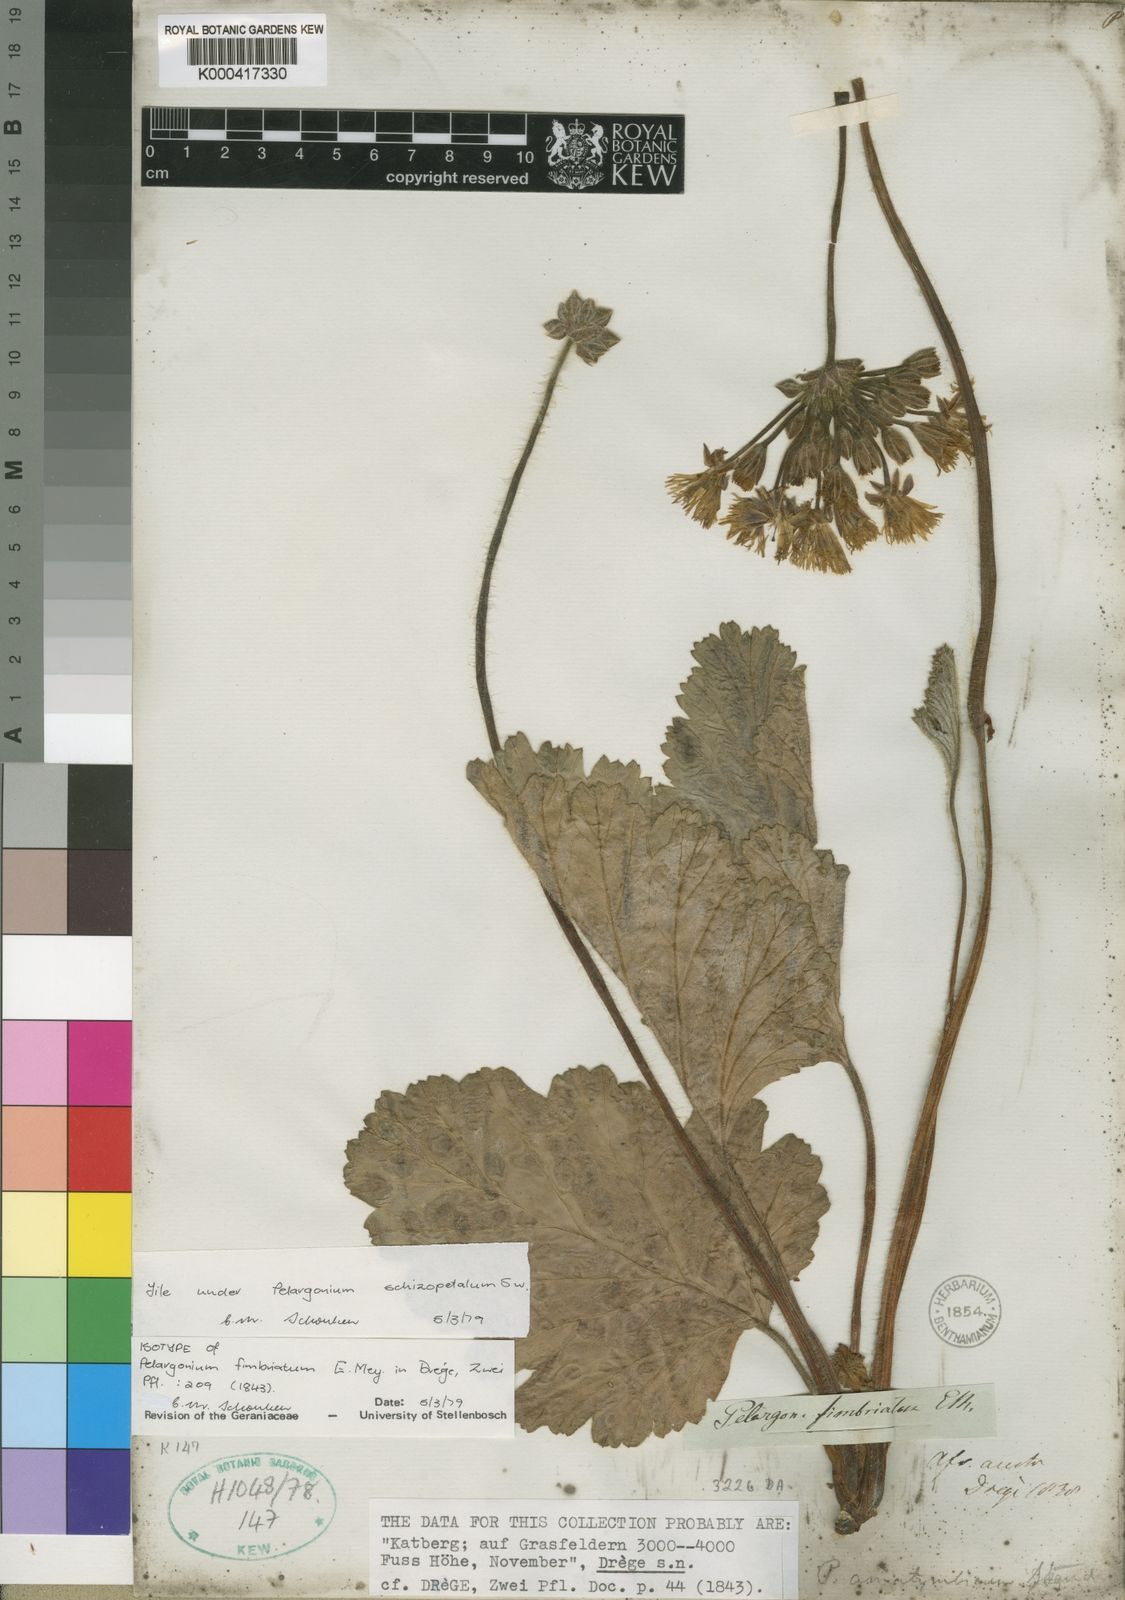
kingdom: Plantae
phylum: Tracheophyta
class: Magnoliopsida
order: Geraniales
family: Geraniaceae
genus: Pelargonium
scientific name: Pelargonium schizopetalum
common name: Divided-petal pelargonium
